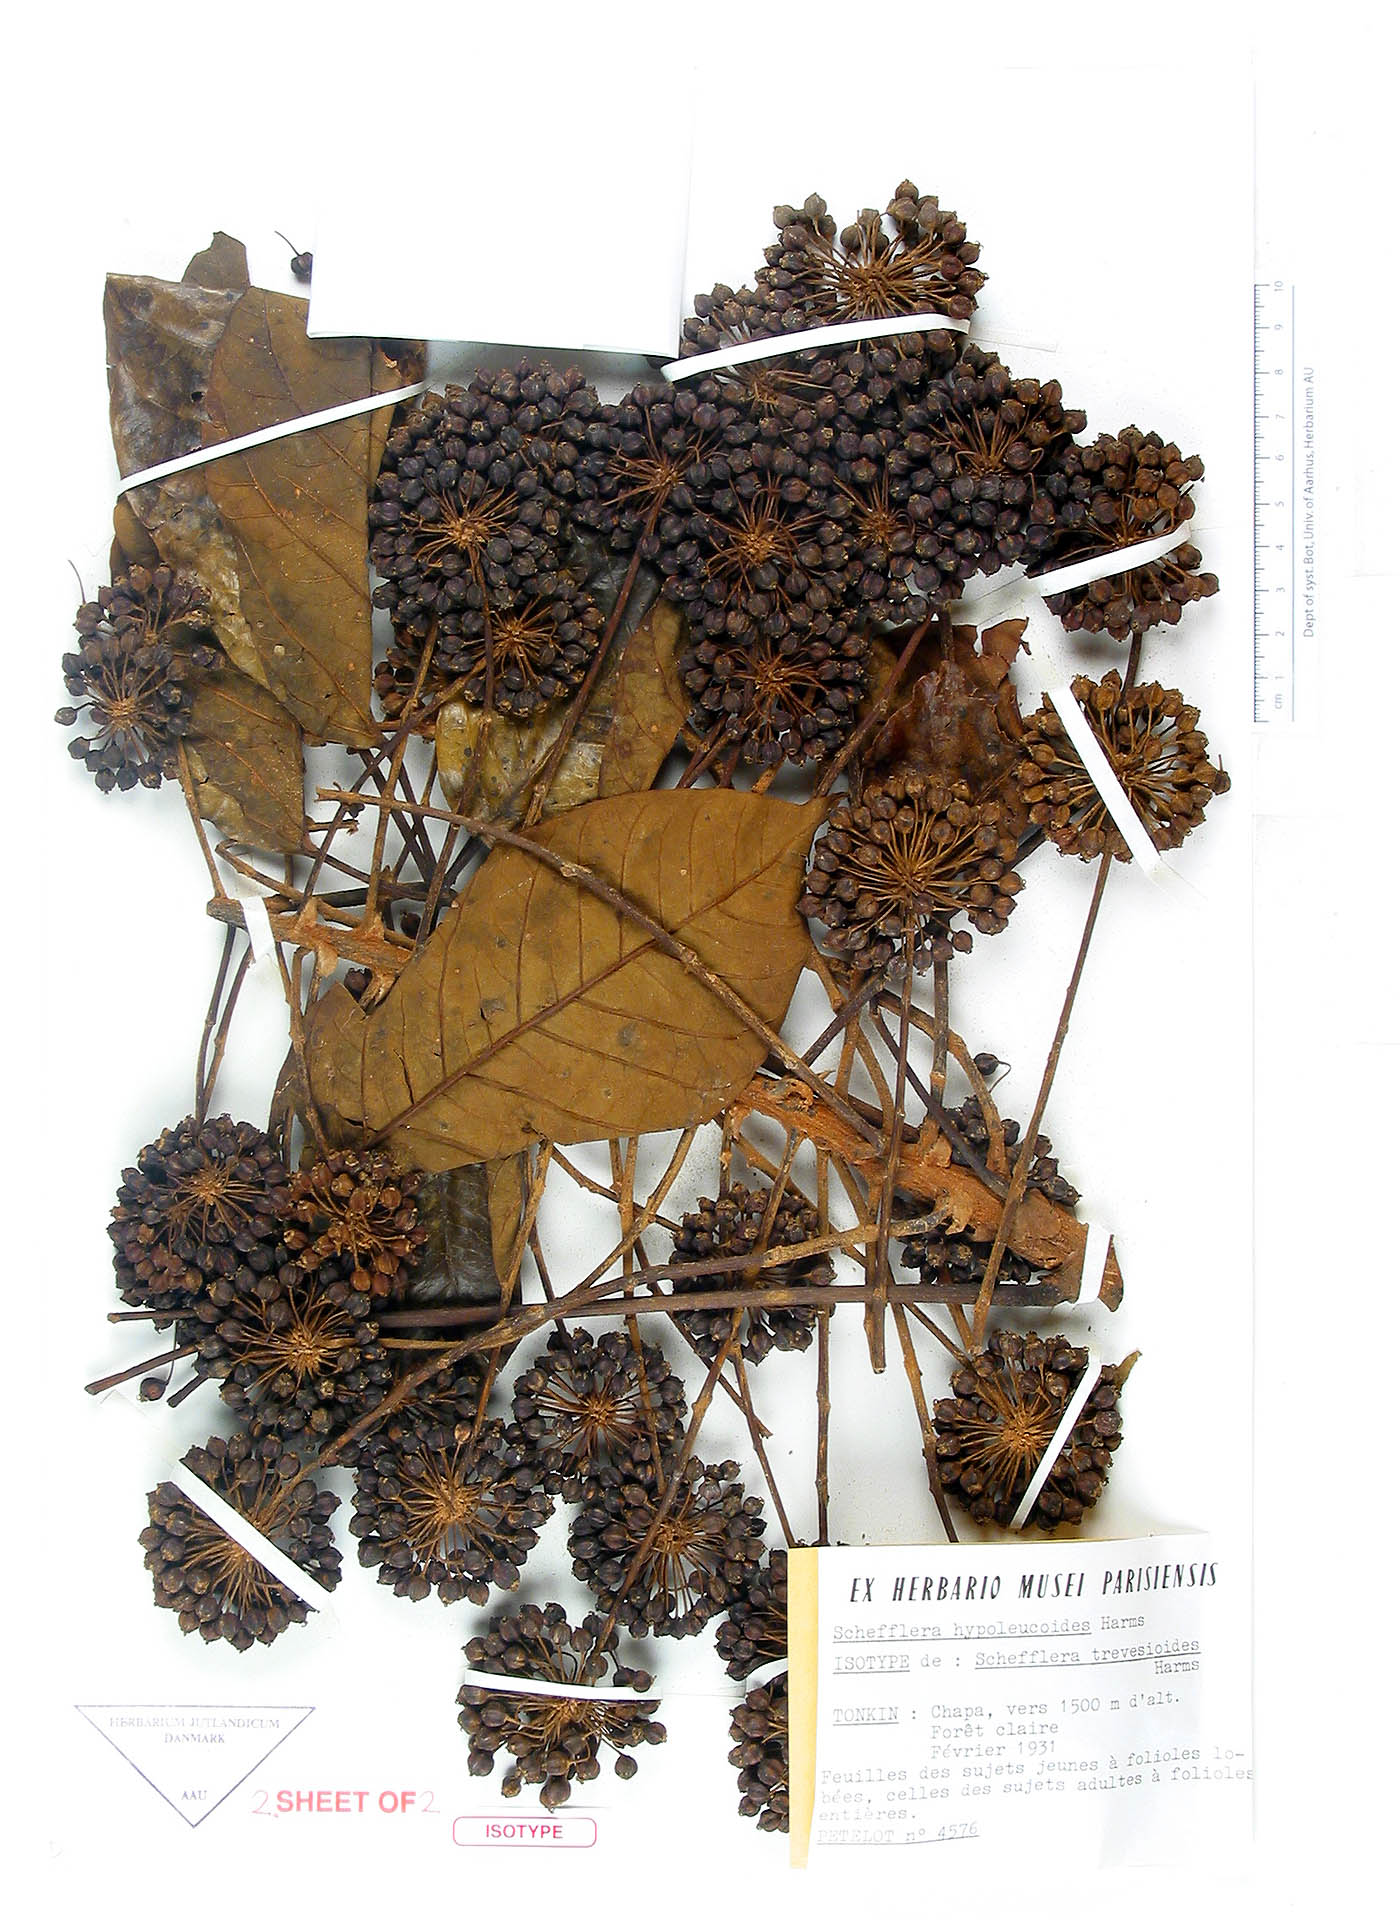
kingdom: Plantae
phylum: Tracheophyta
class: Magnoliopsida
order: Apiales
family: Araliaceae
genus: Heptapleurum
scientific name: Heptapleurum hypoleucoides
